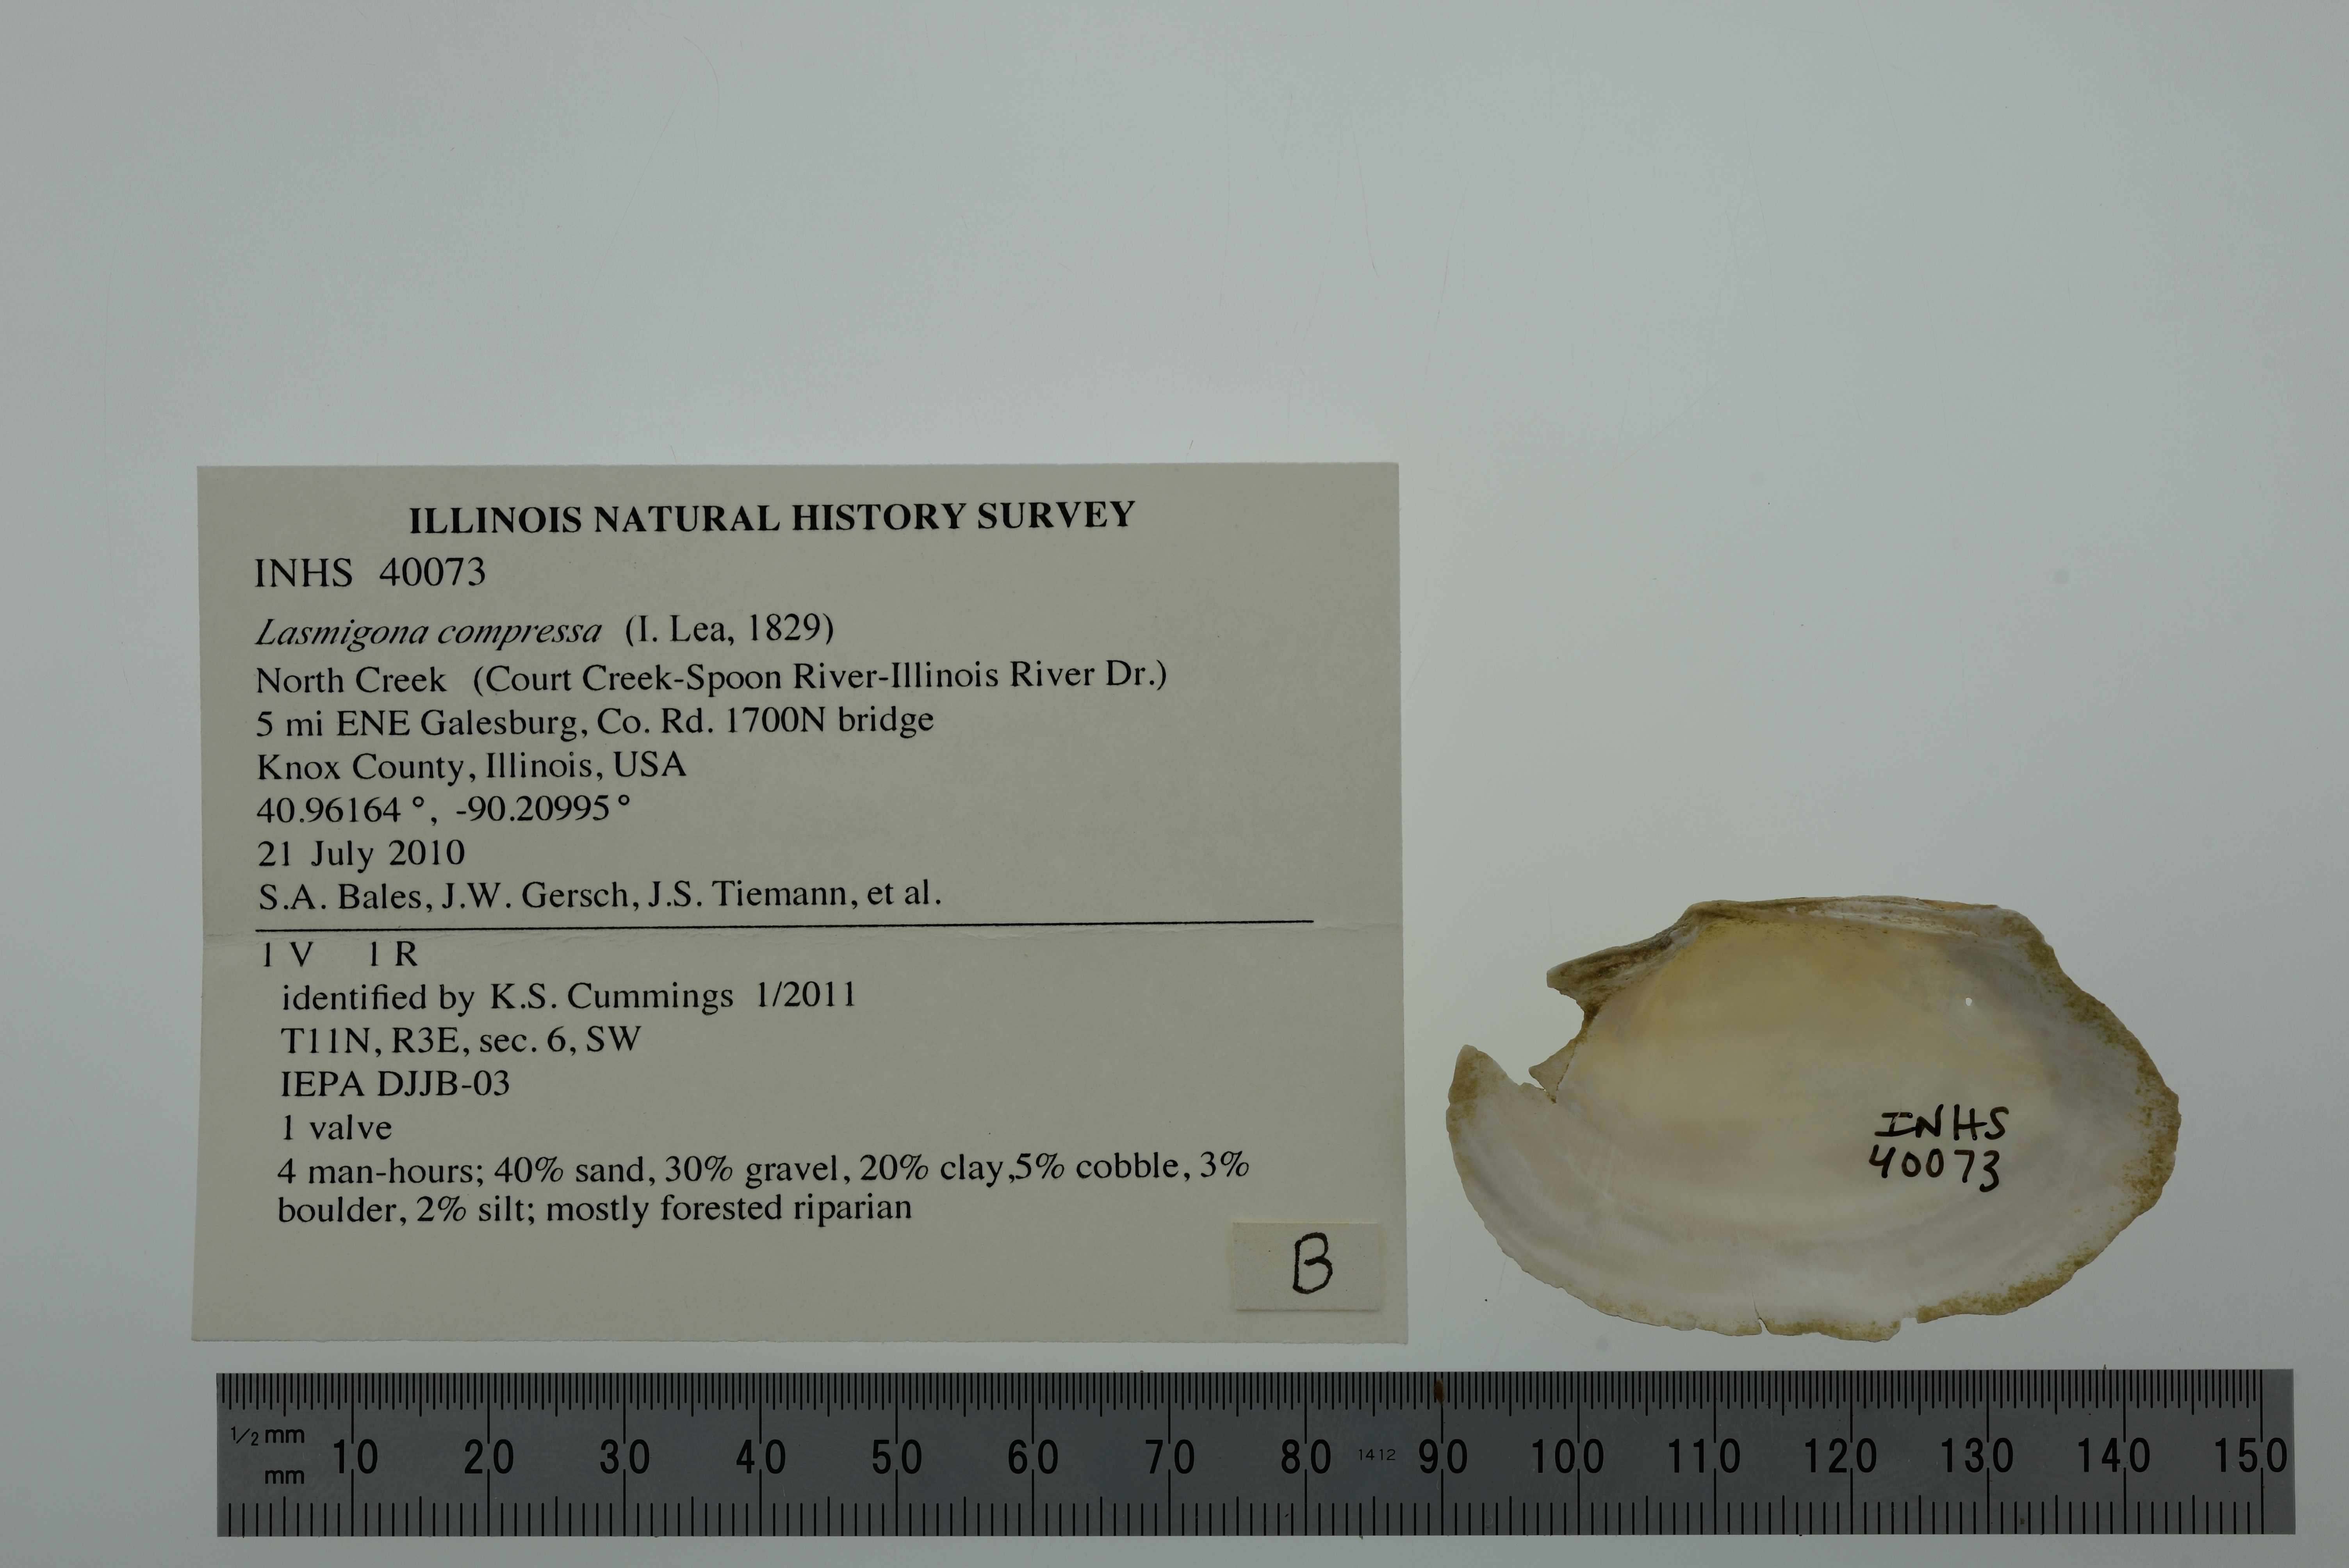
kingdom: Animalia
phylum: Mollusca
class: Bivalvia
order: Unionida
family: Unionidae
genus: Lasmigona
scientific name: Lasmigona compressa
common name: Creek heelsplitter
